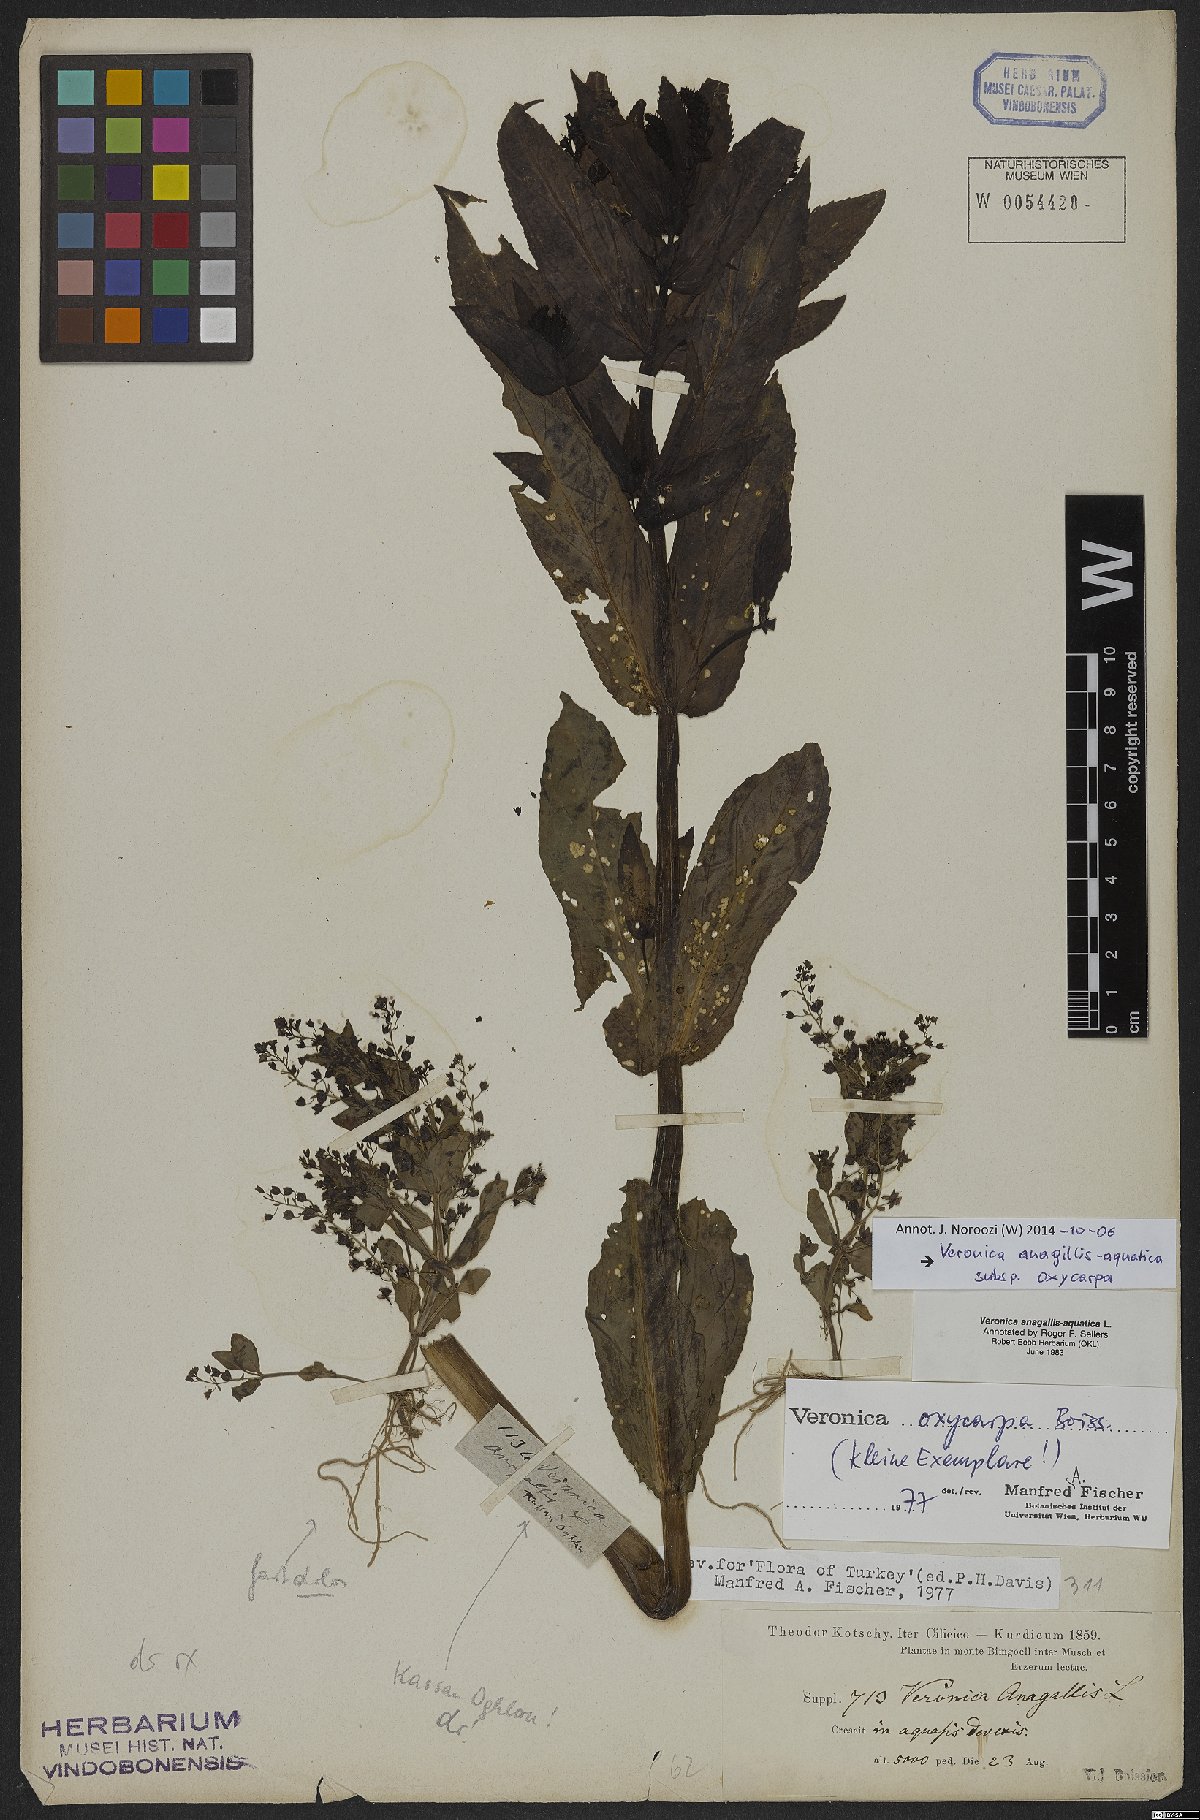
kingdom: Plantae
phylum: Tracheophyta
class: Magnoliopsida
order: Lamiales
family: Plantaginaceae
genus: Veronica
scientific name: Veronica oxycarpa
